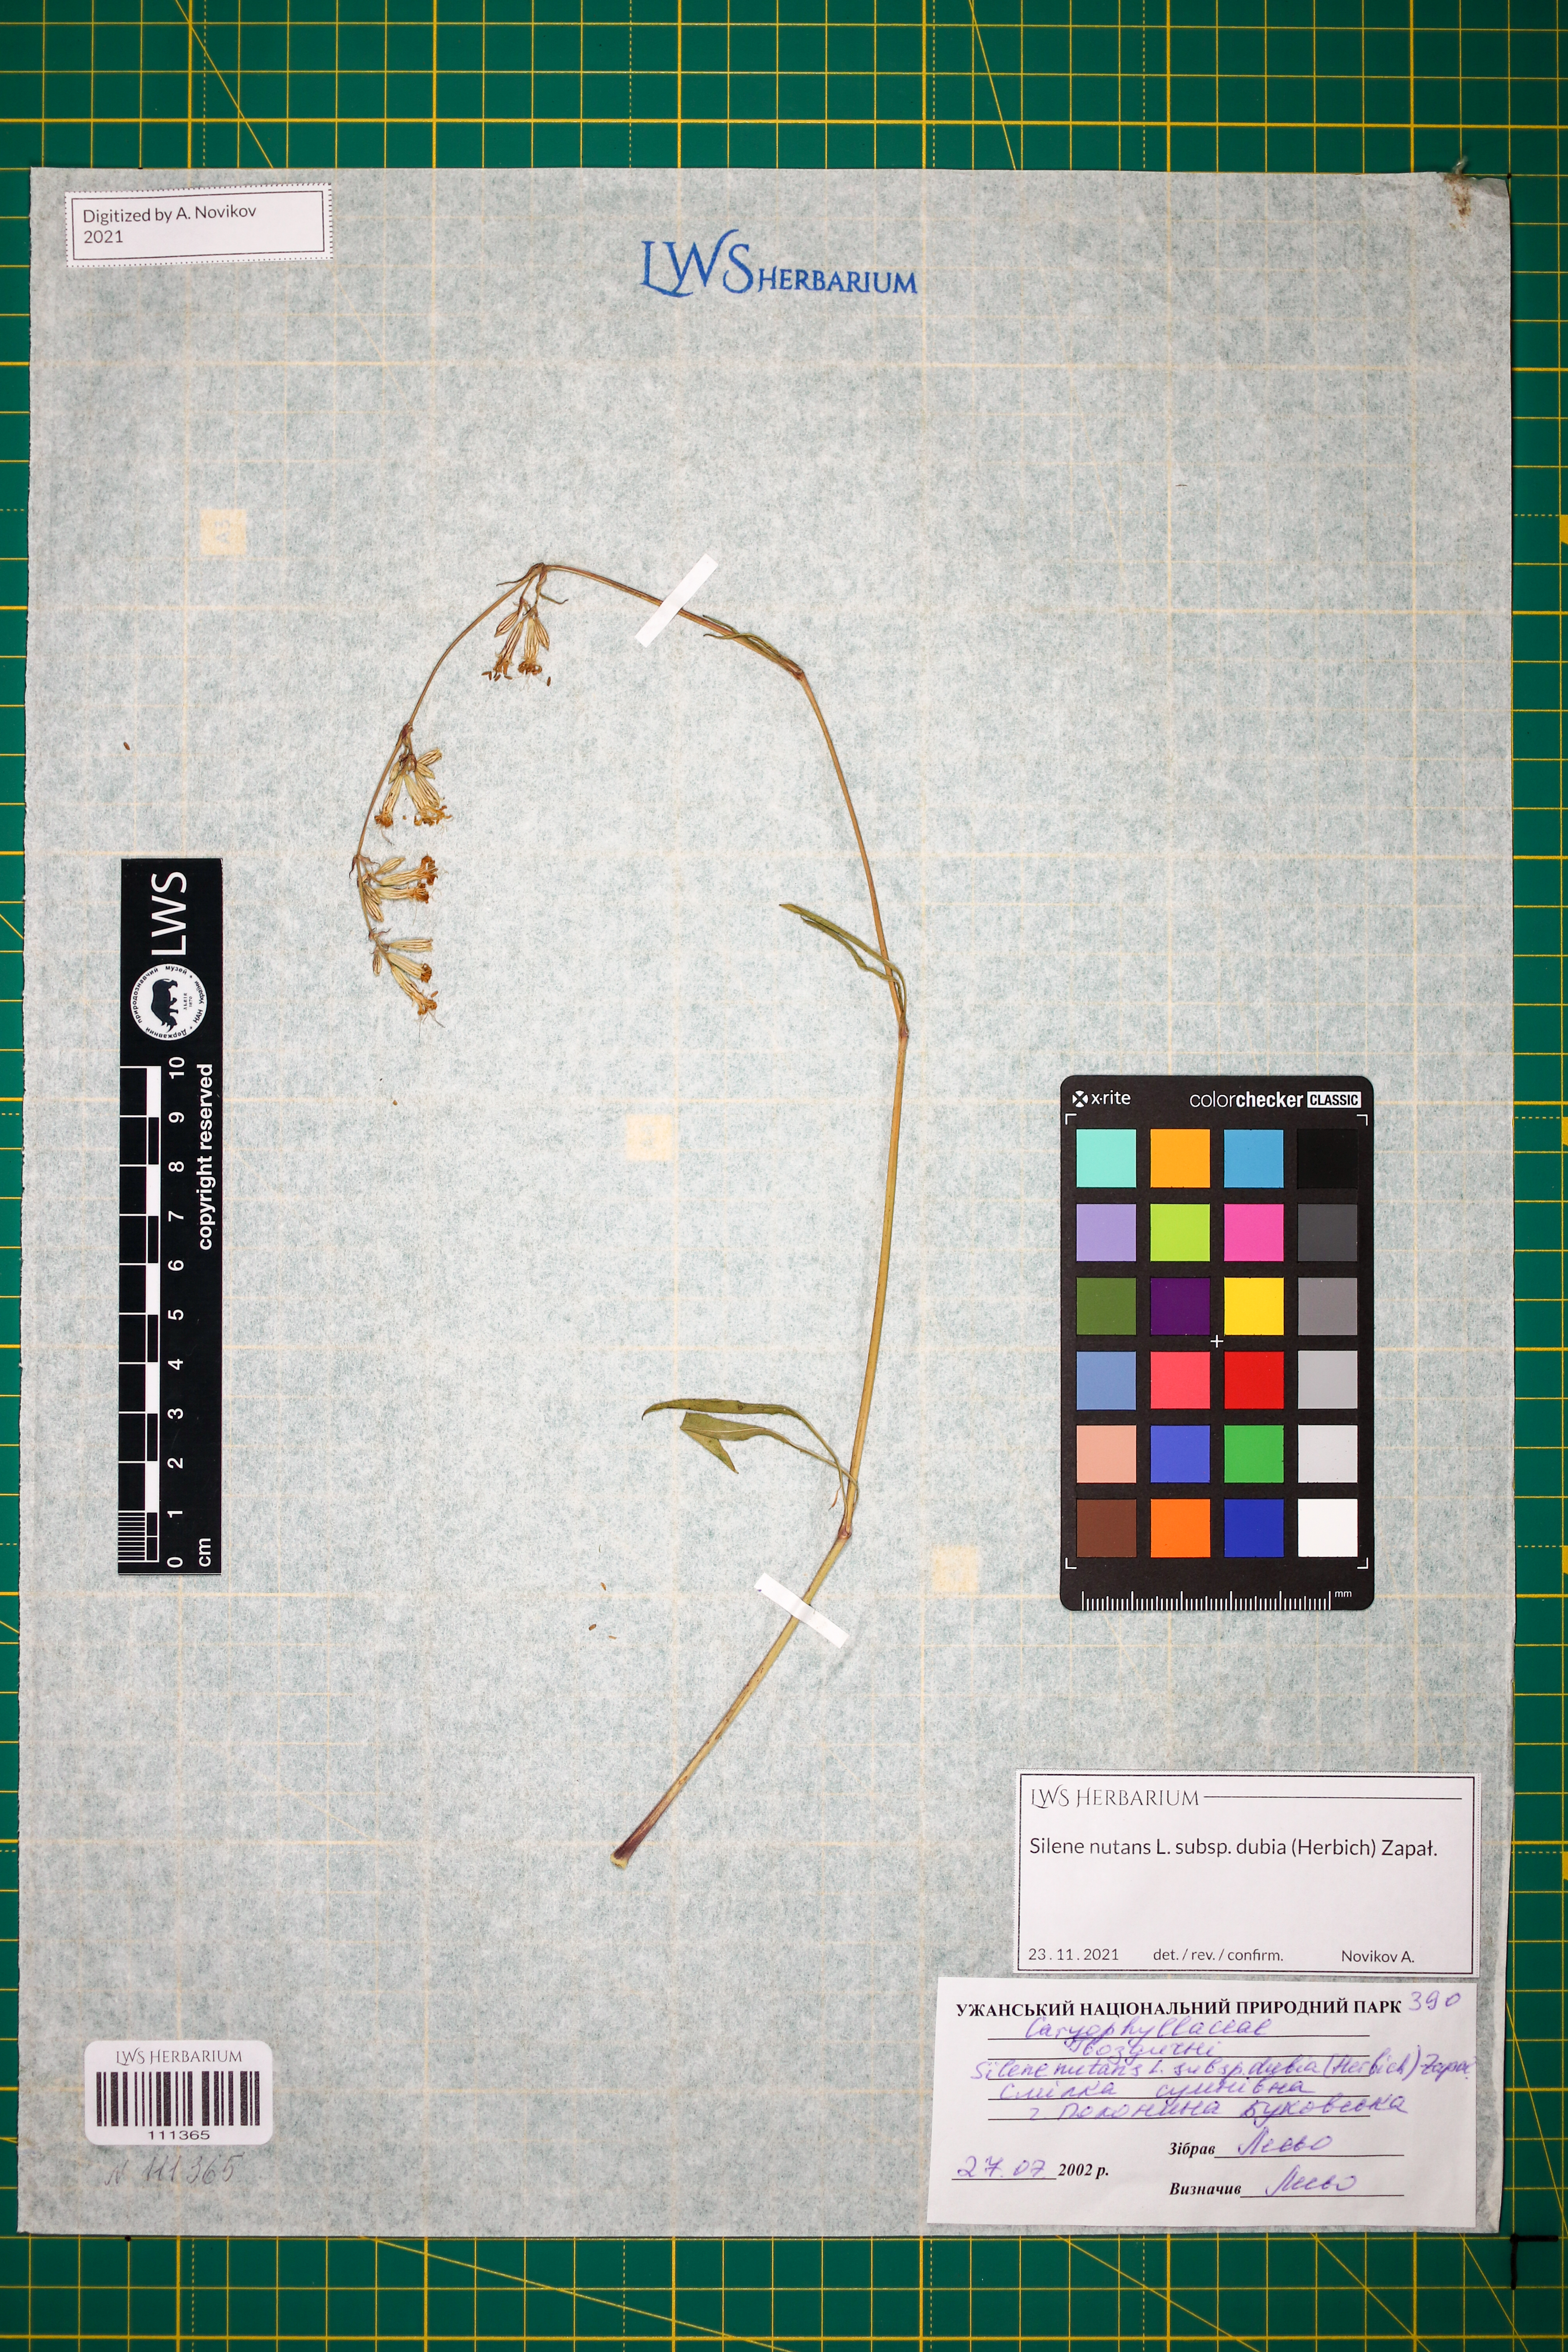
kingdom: Plantae
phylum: Tracheophyta
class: Magnoliopsida
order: Caryophyllales
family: Caryophyllaceae
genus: Silene
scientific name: Silene nutans
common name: Nottingham catchfly
